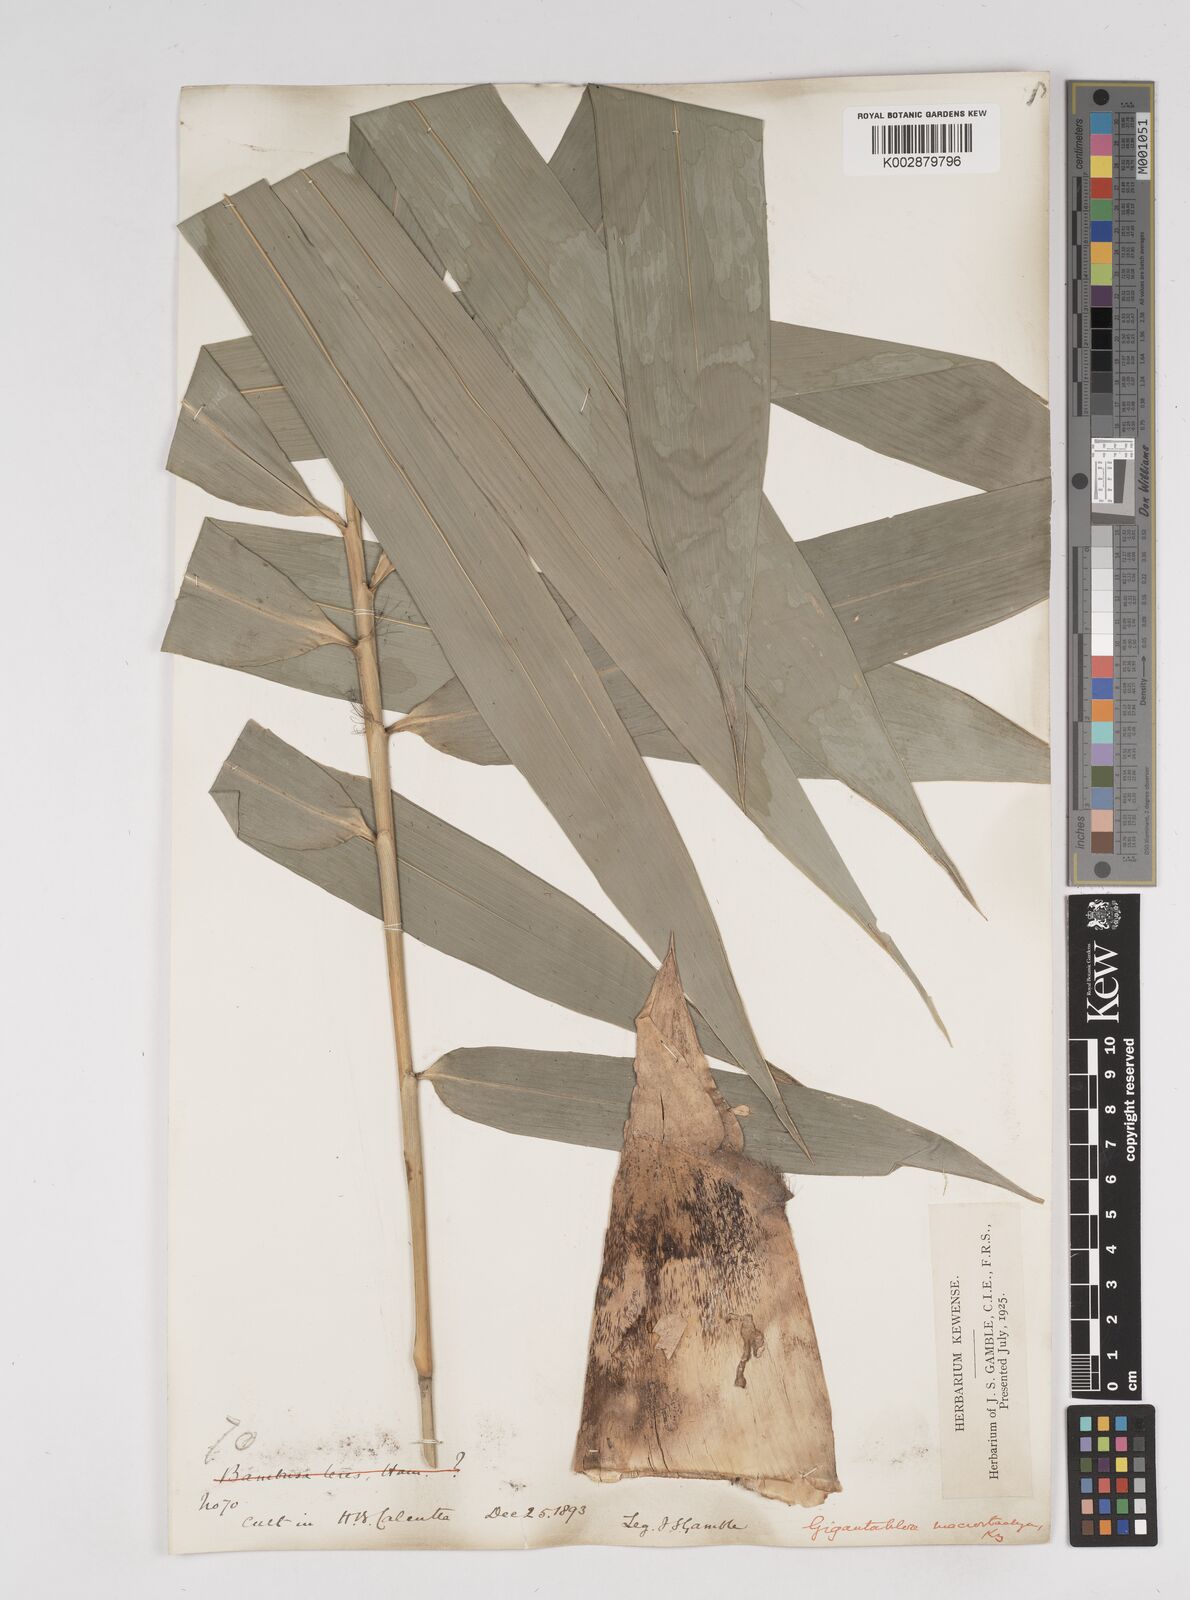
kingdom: Plantae
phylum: Tracheophyta
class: Liliopsida
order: Poales
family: Poaceae
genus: Gigantochloa
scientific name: Gigantochloa macrostachya
